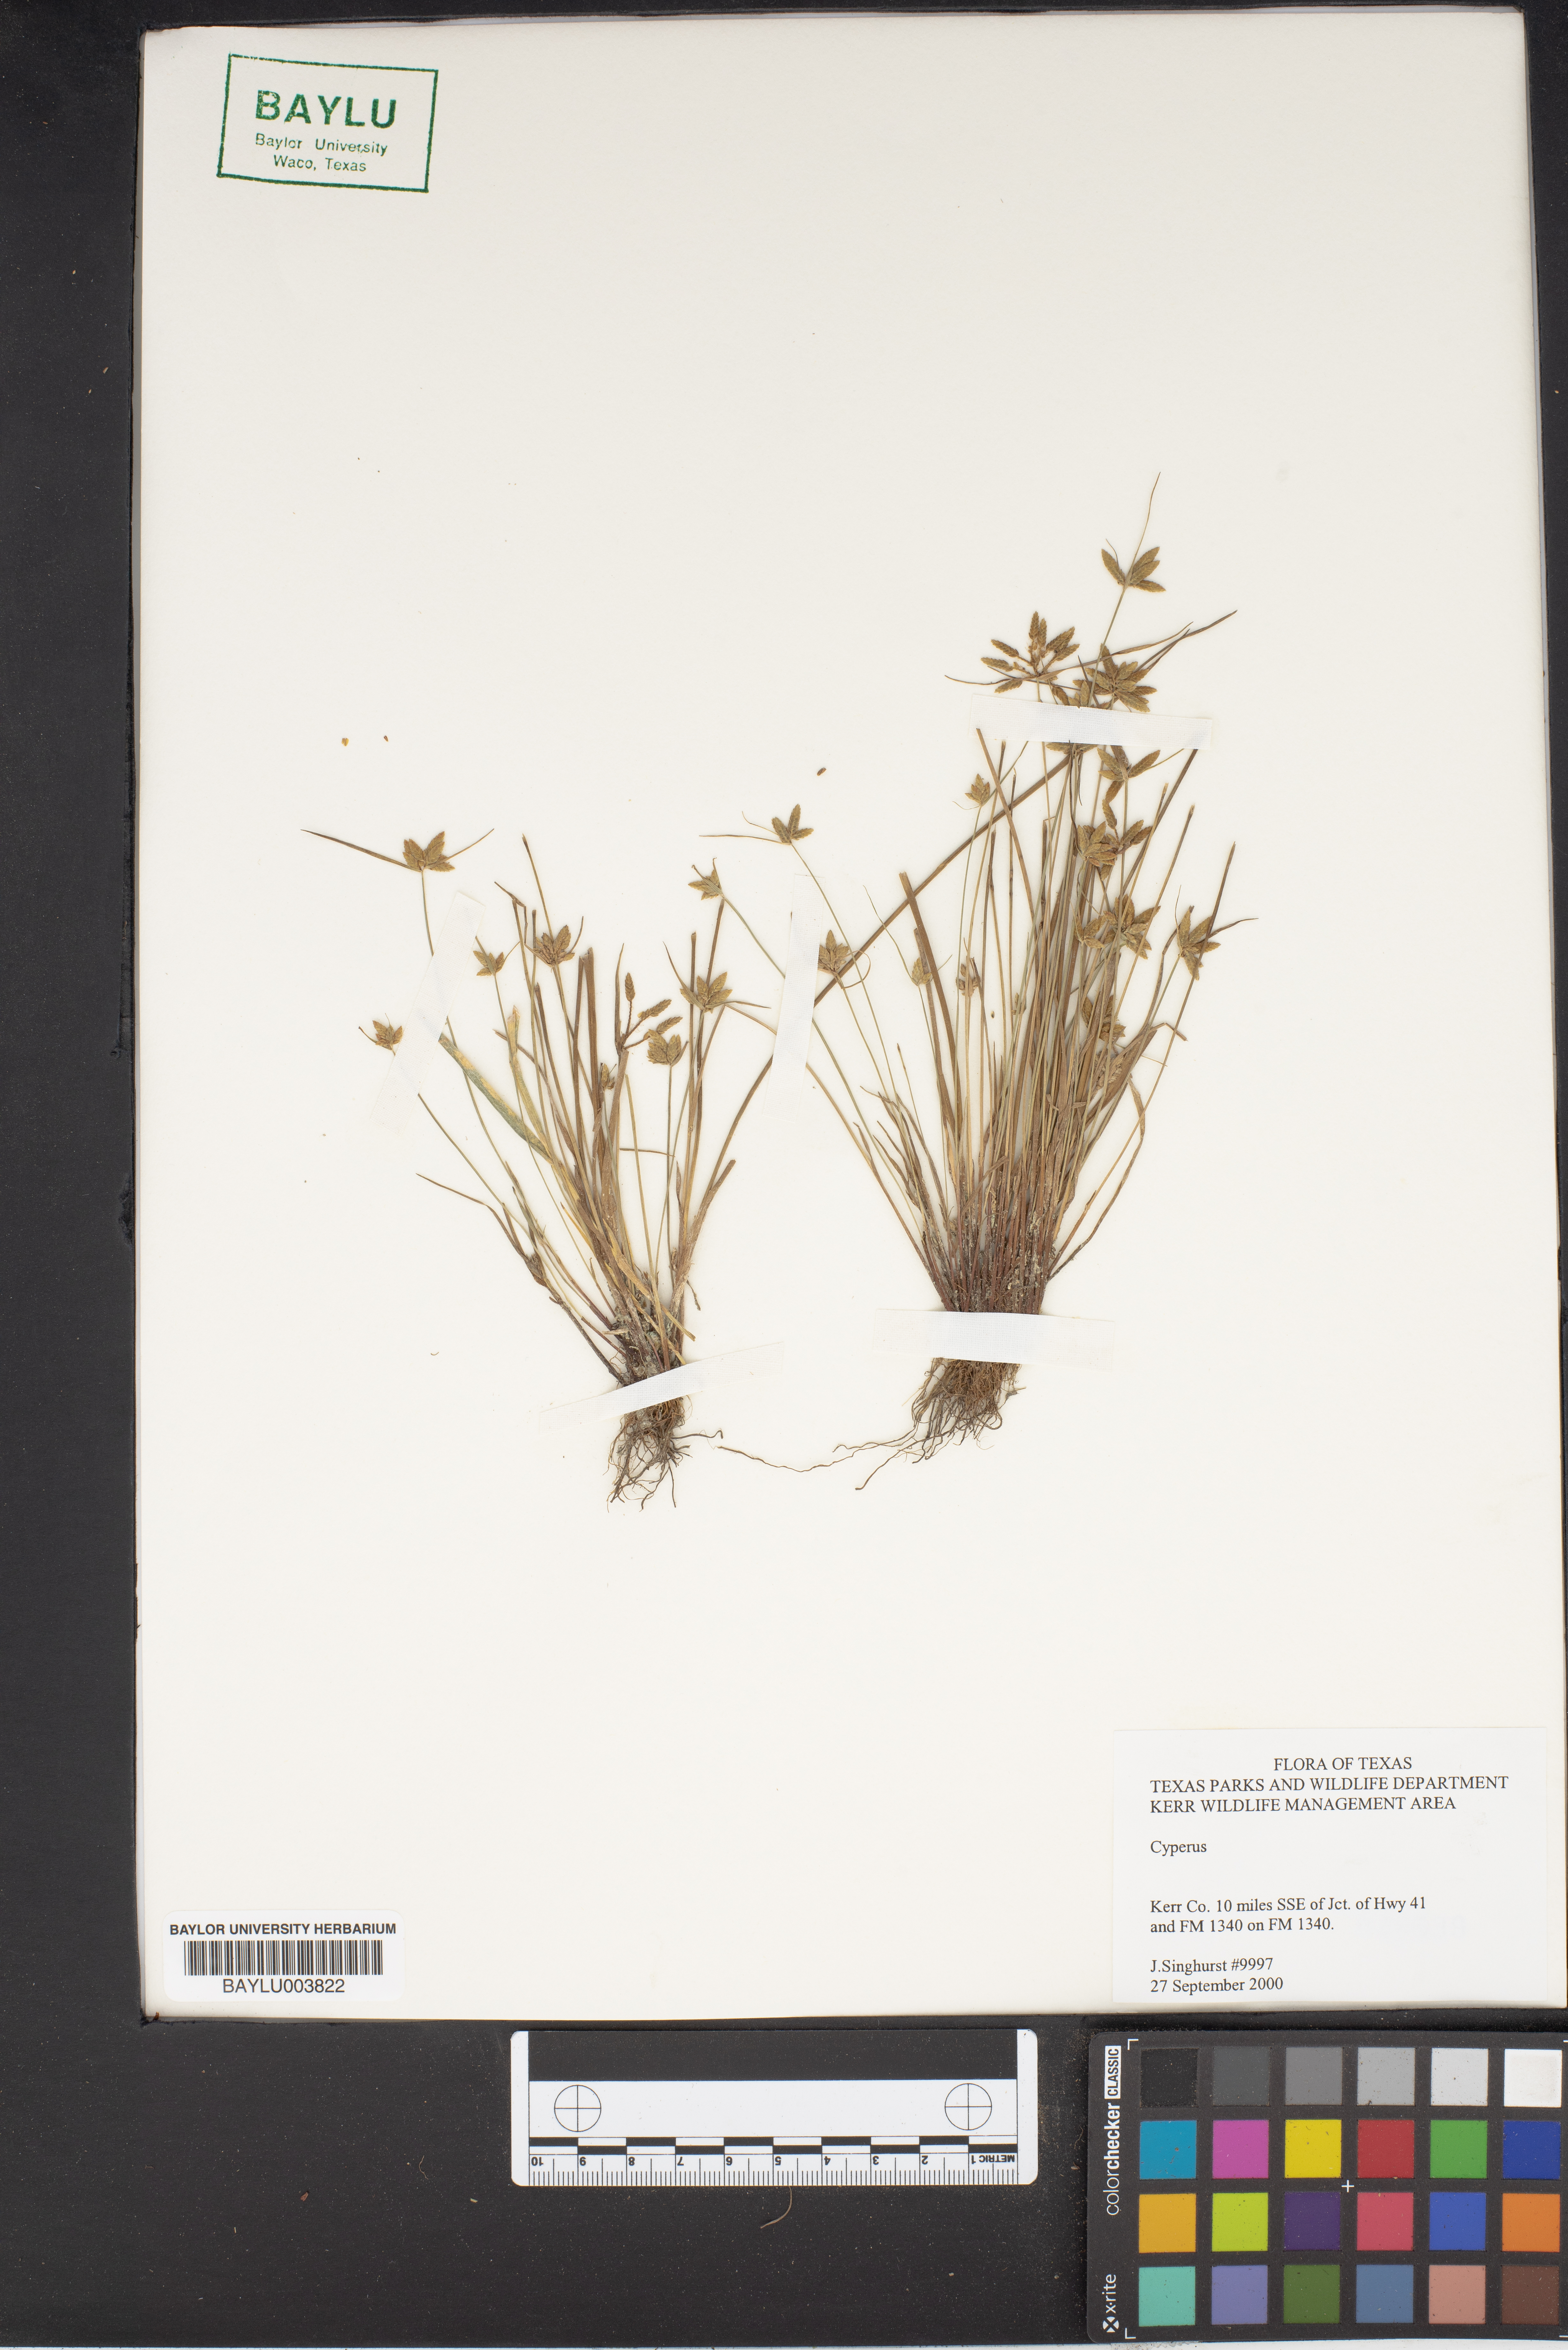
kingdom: Plantae
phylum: Tracheophyta
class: Liliopsida
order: Poales
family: Cyperaceae
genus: Cyperus
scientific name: Cyperus
